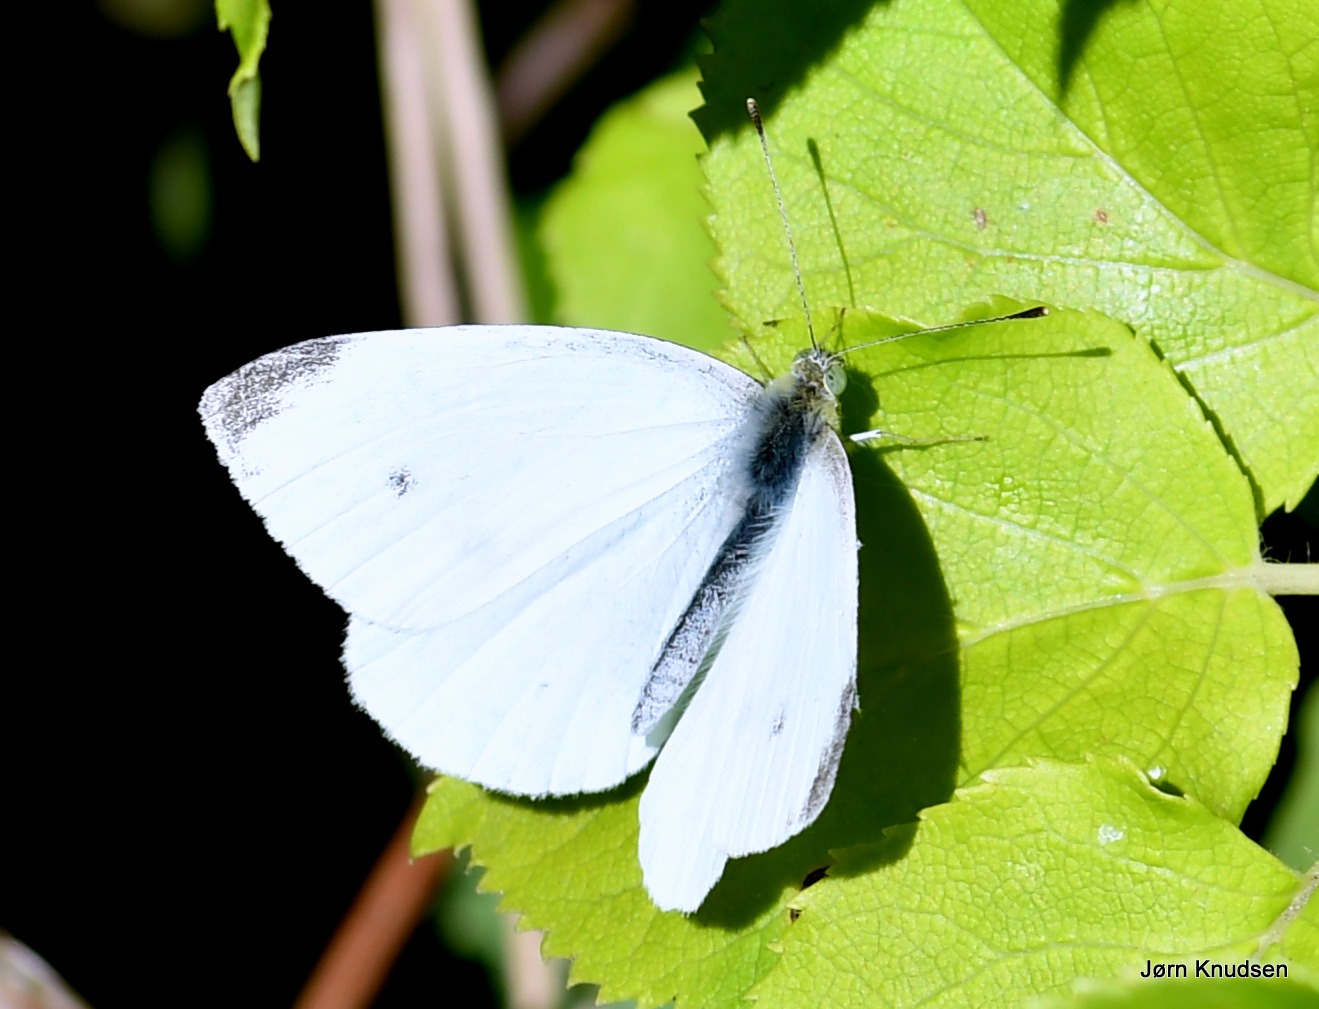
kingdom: Animalia
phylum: Arthropoda
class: Insecta
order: Lepidoptera
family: Pieridae
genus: Pieris
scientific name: Pieris rapae
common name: Lille kålsommerfugl
